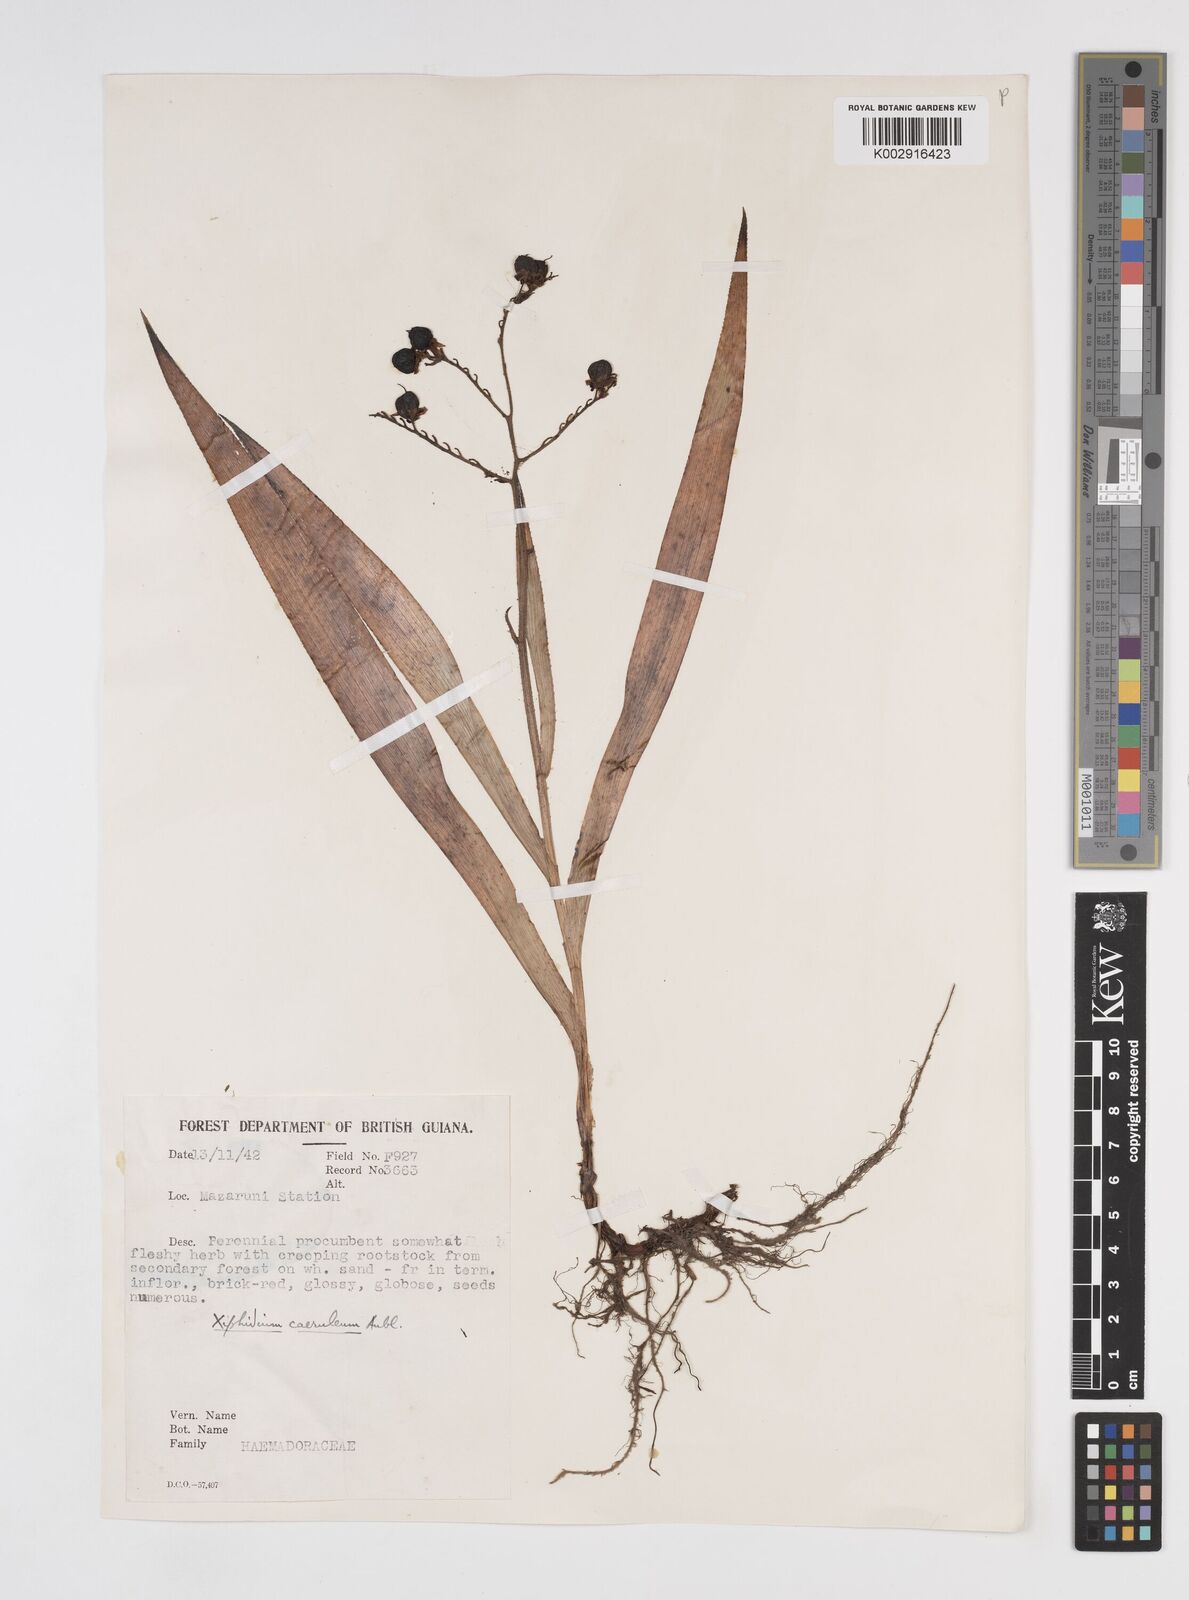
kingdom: Plantae
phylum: Tracheophyta
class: Liliopsida
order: Commelinales
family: Haemodoraceae
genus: Xiphidium
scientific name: Xiphidium caeruleum
